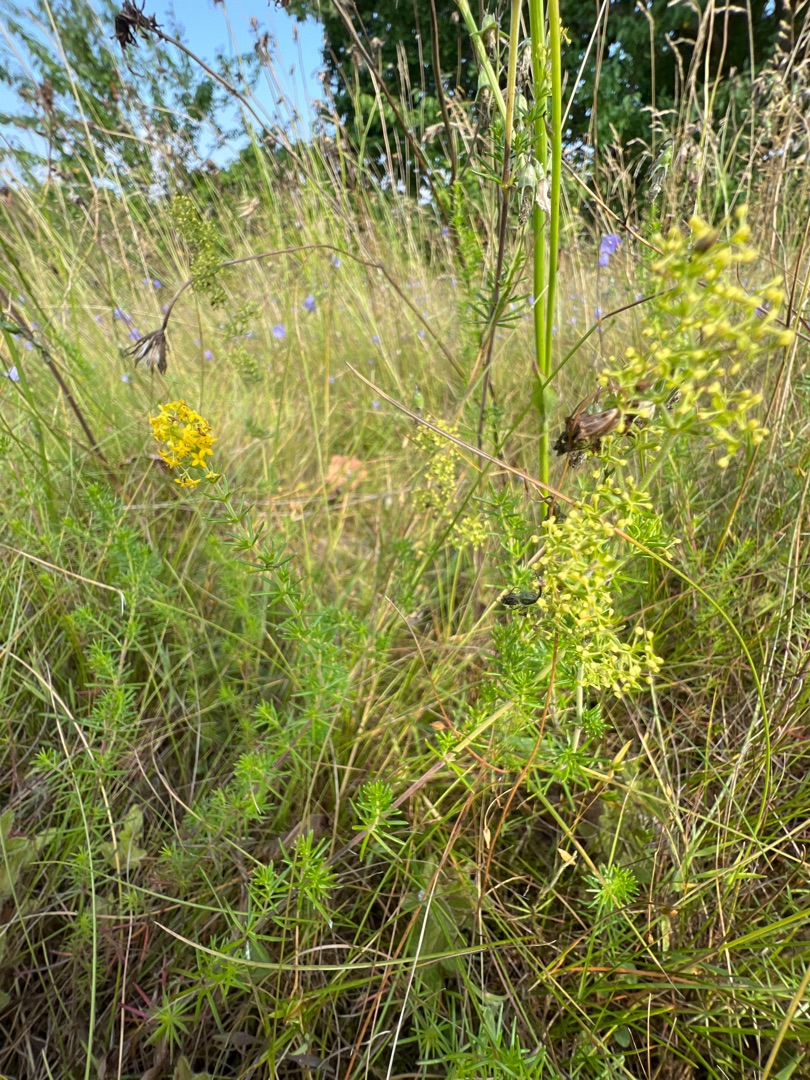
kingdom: Plantae
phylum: Tracheophyta
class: Magnoliopsida
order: Gentianales
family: Rubiaceae
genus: Galium
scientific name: Galium verum
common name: Gul snerre
